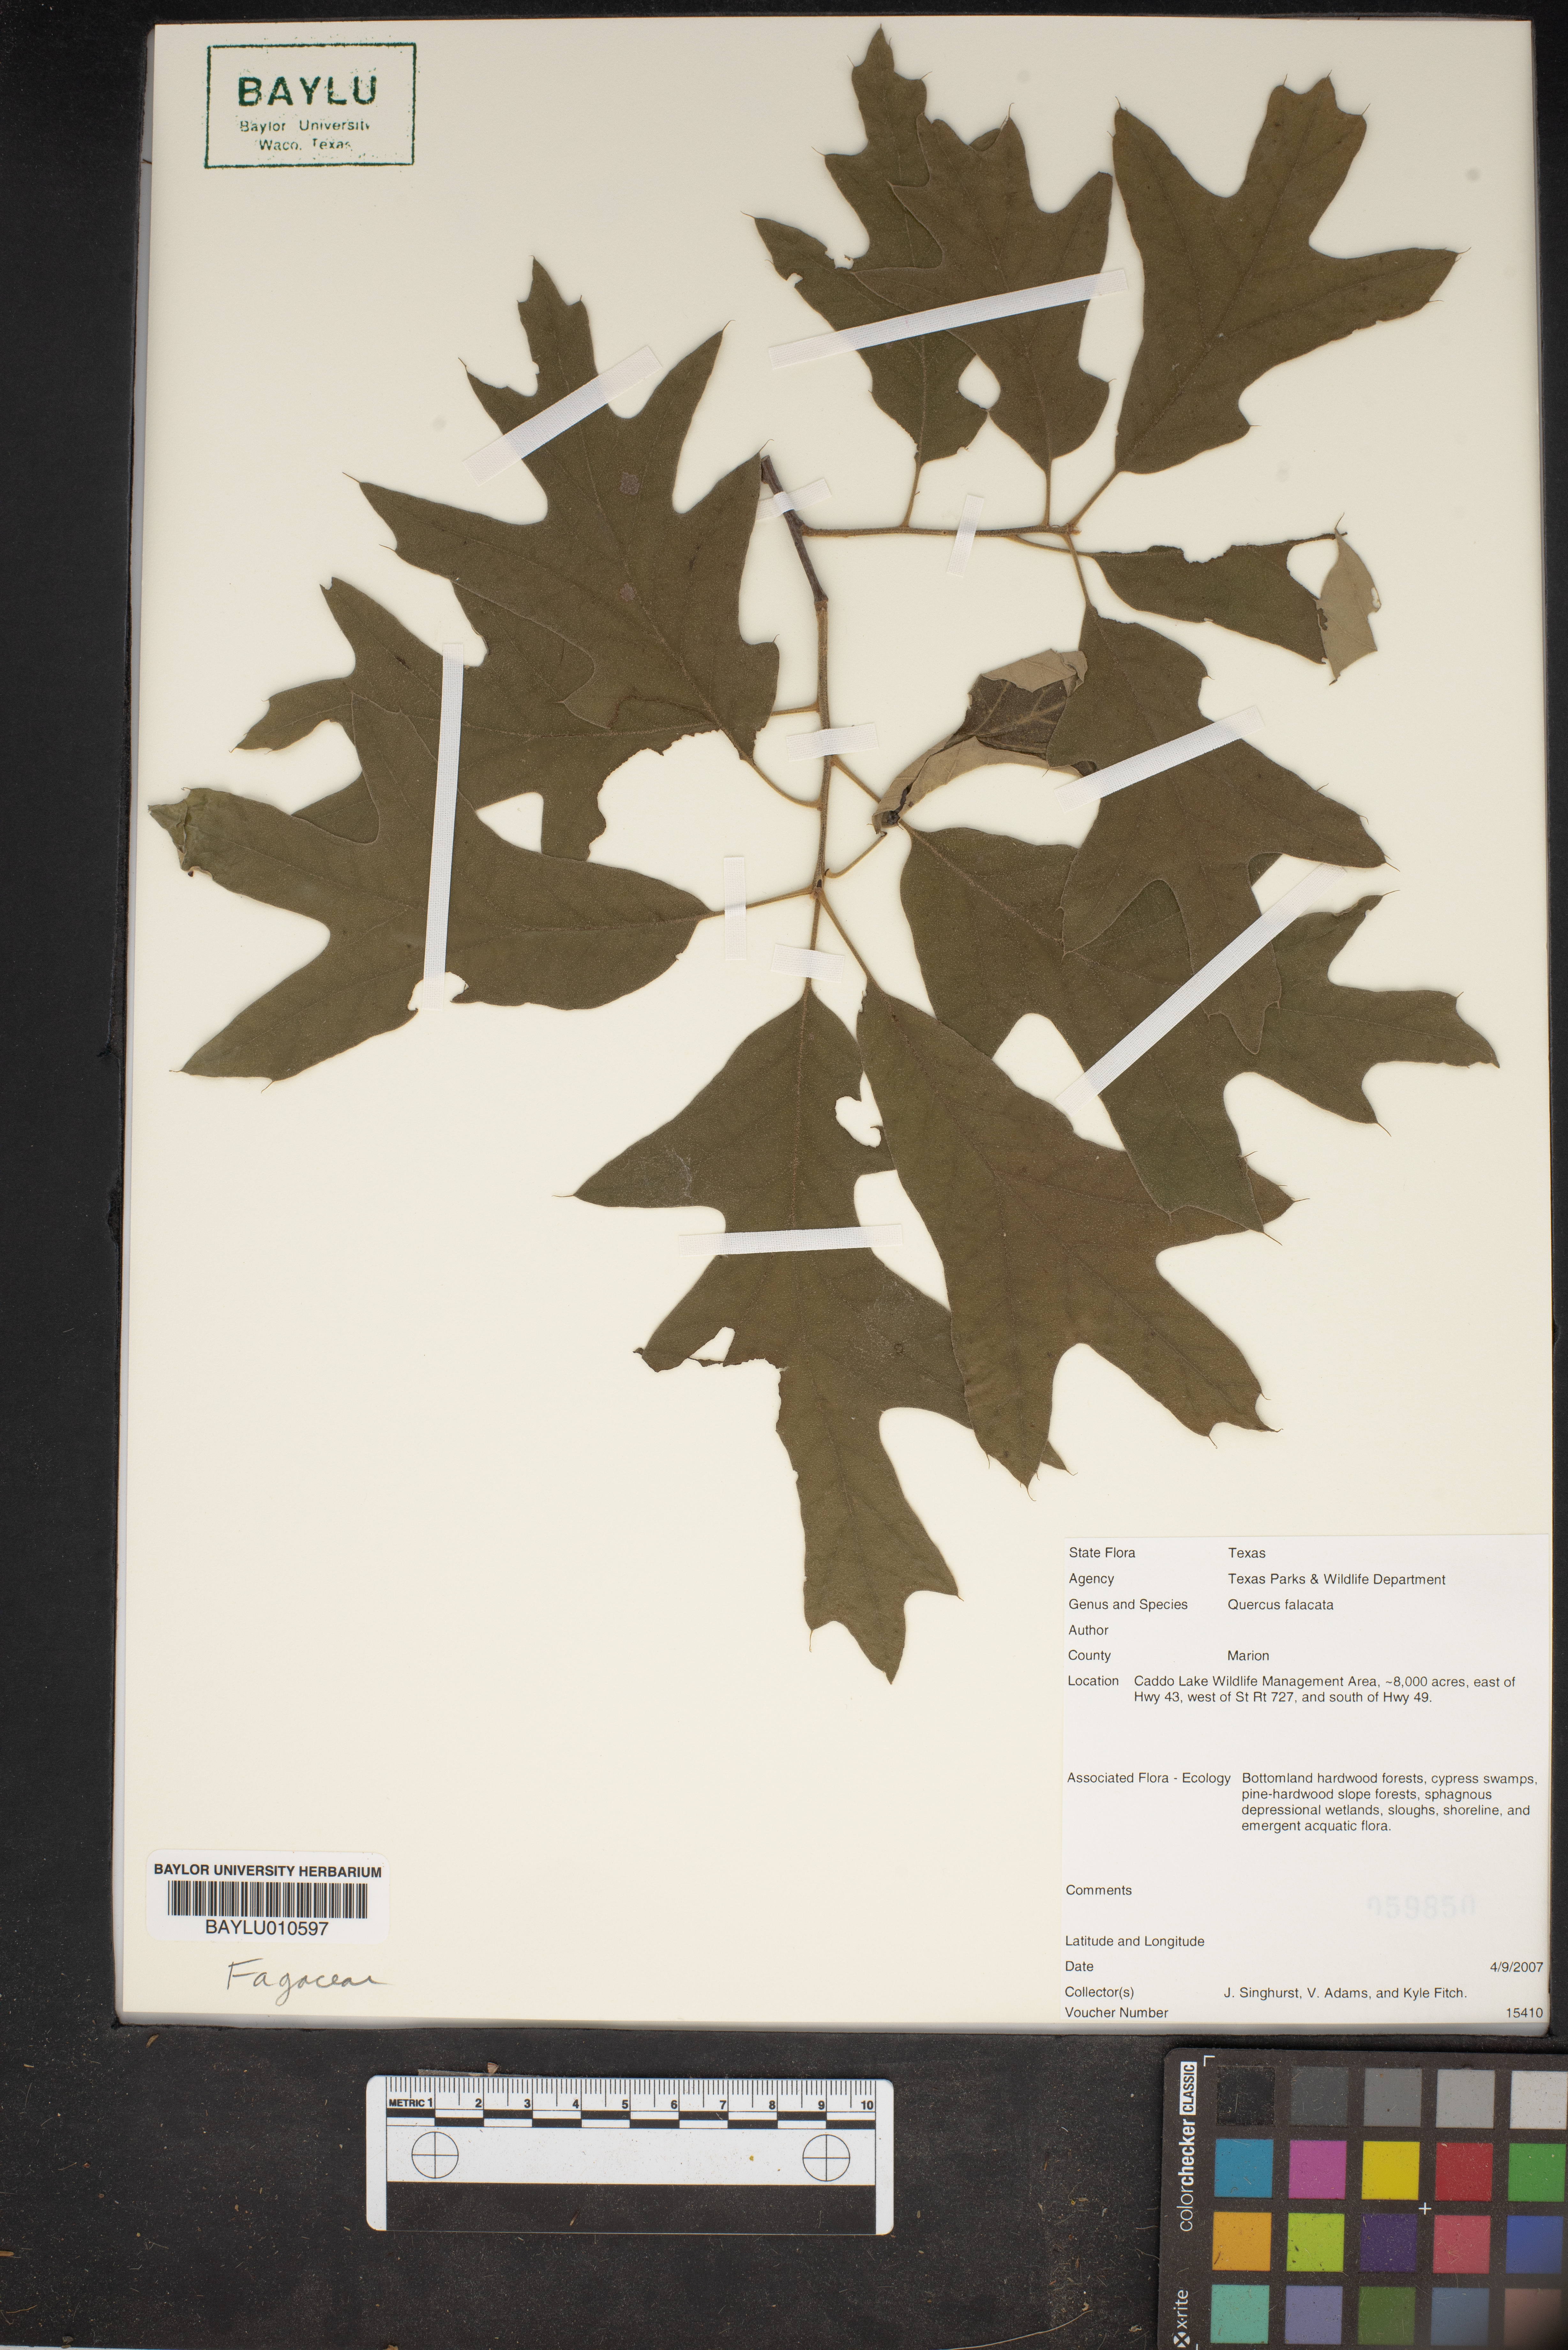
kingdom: Plantae
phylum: Tracheophyta
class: Magnoliopsida
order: Fagales
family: Fagaceae
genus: Quercus
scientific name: Quercus falcata
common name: Southern red oak
